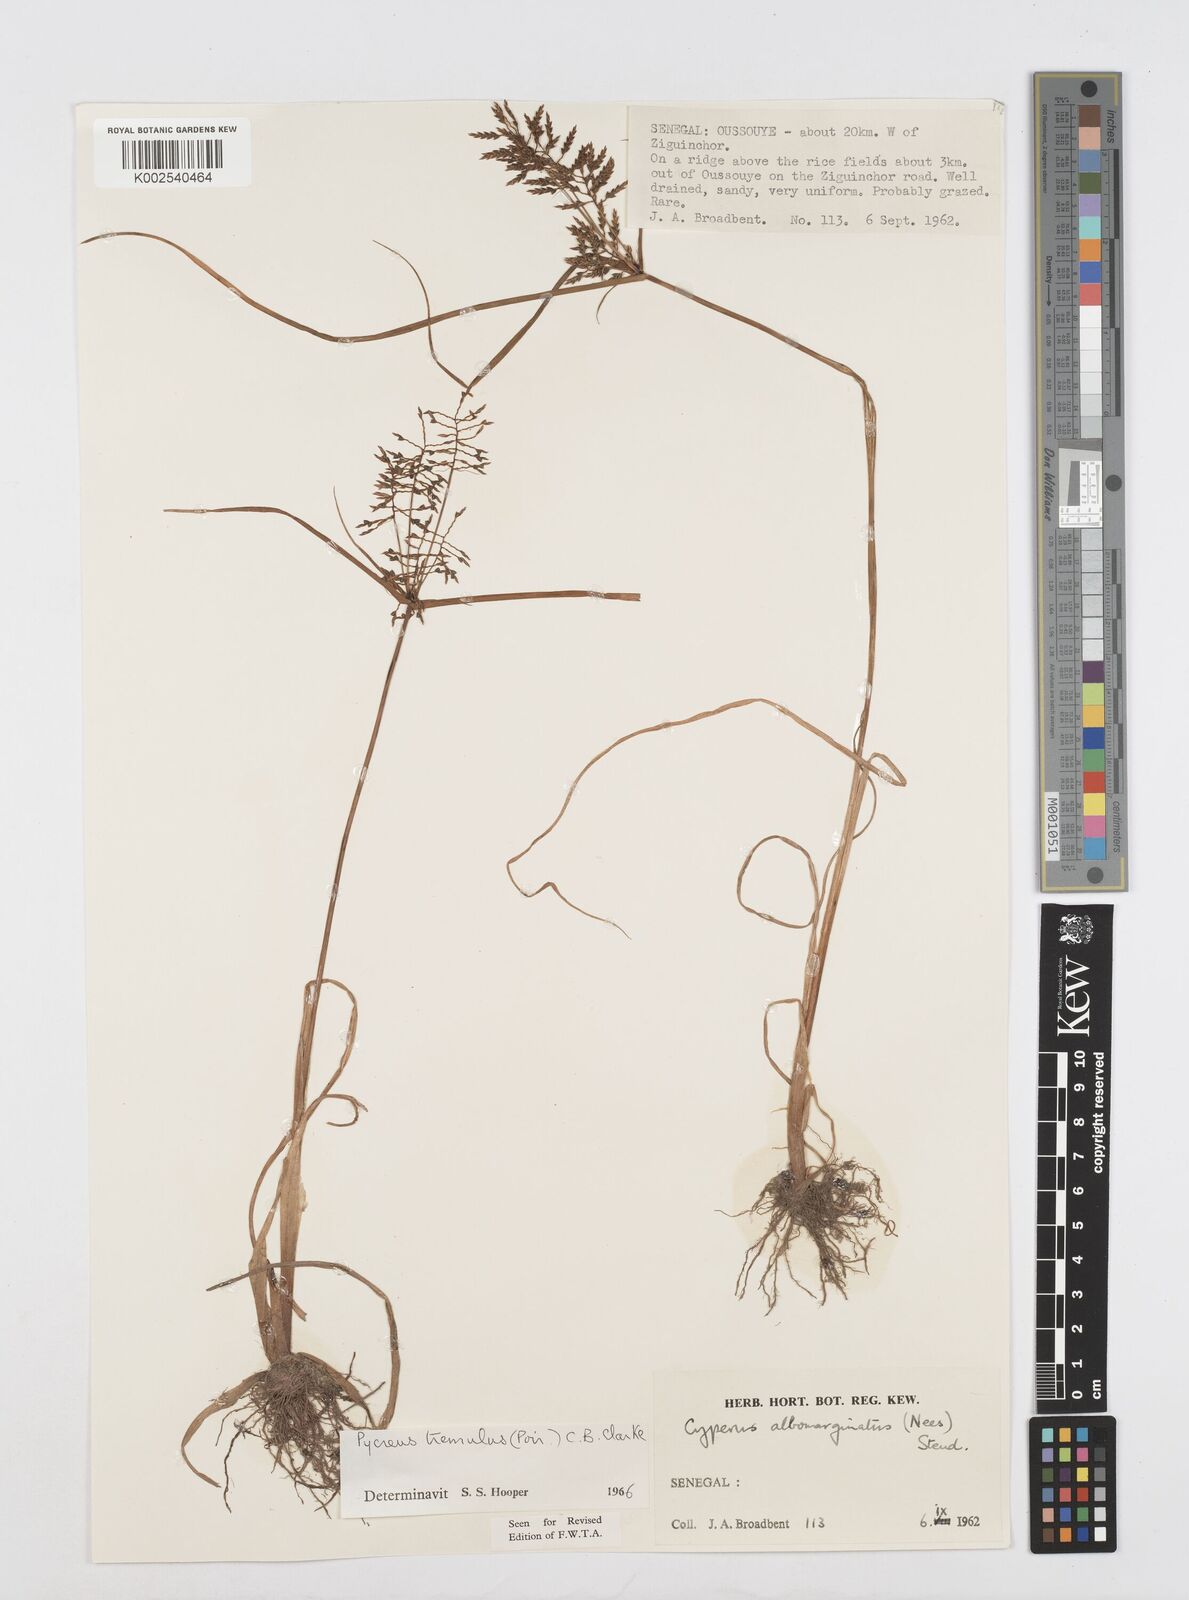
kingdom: Plantae
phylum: Tracheophyta
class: Liliopsida
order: Poales
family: Cyperaceae
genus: Cyperus
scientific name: Cyperus macrostachyos
